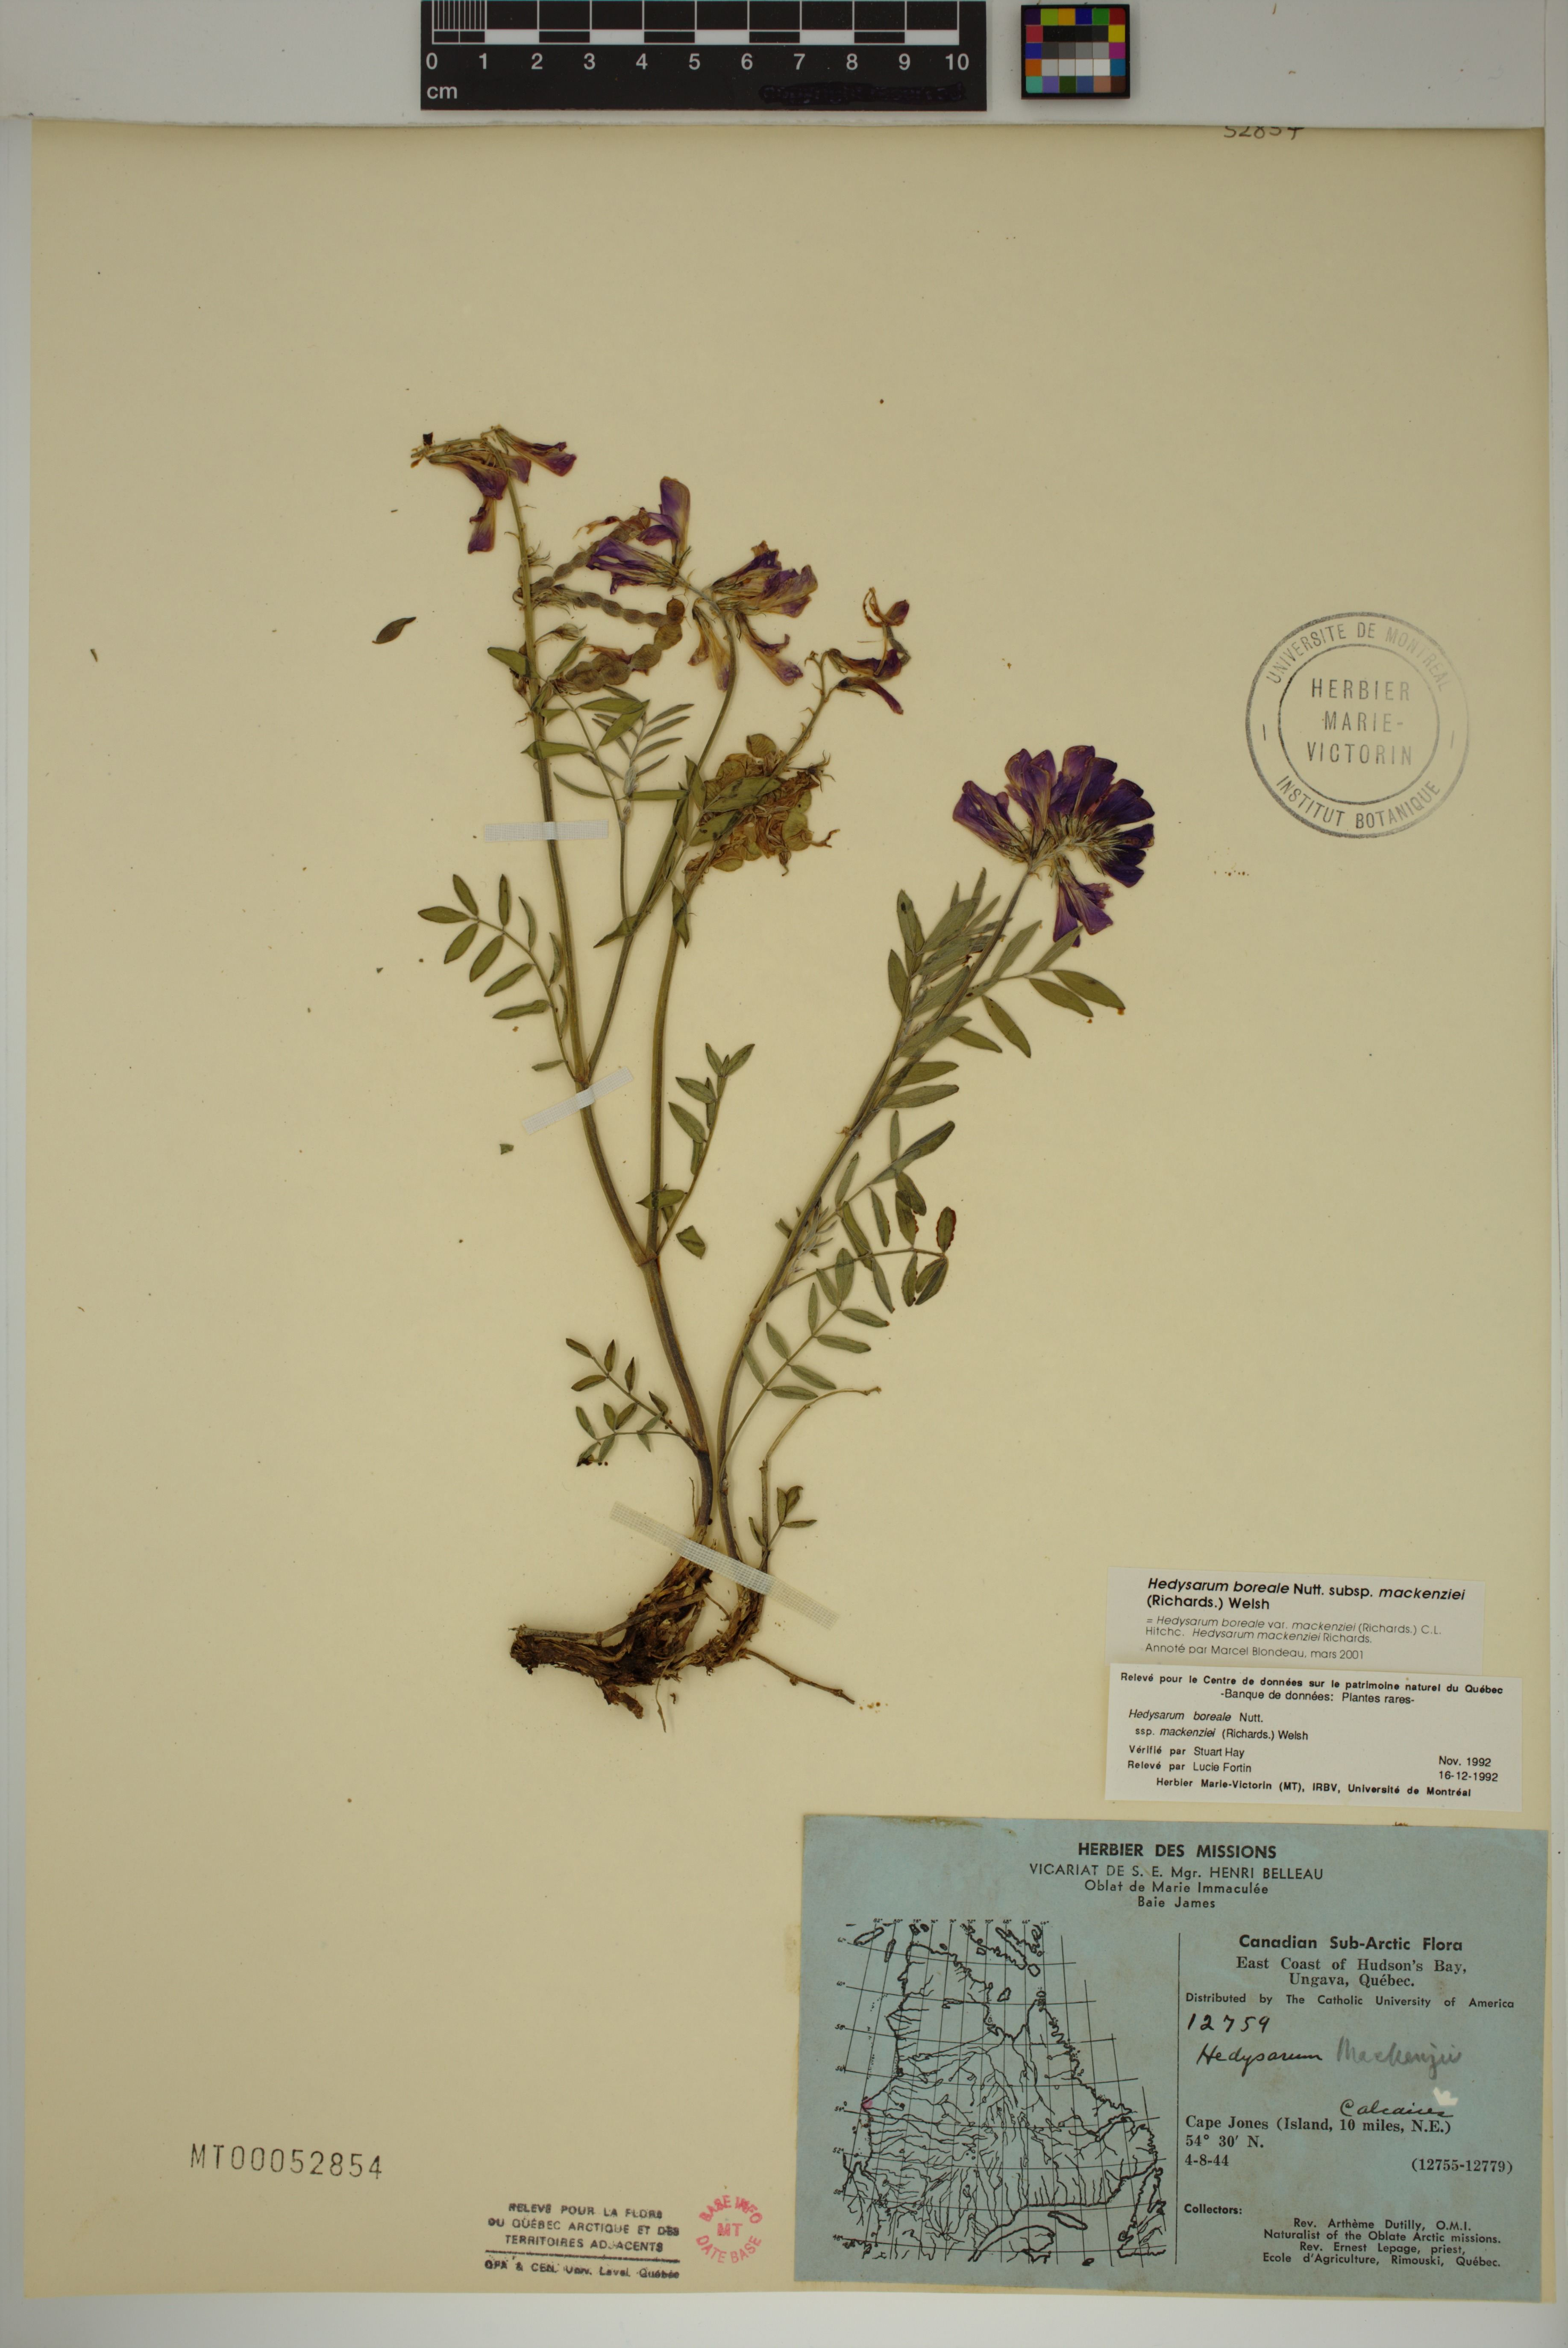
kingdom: Plantae
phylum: Tracheophyta
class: Magnoliopsida
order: Fabales
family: Fabaceae
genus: Hedysarum
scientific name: Hedysarum boreale
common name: Northern sweet-vetch
